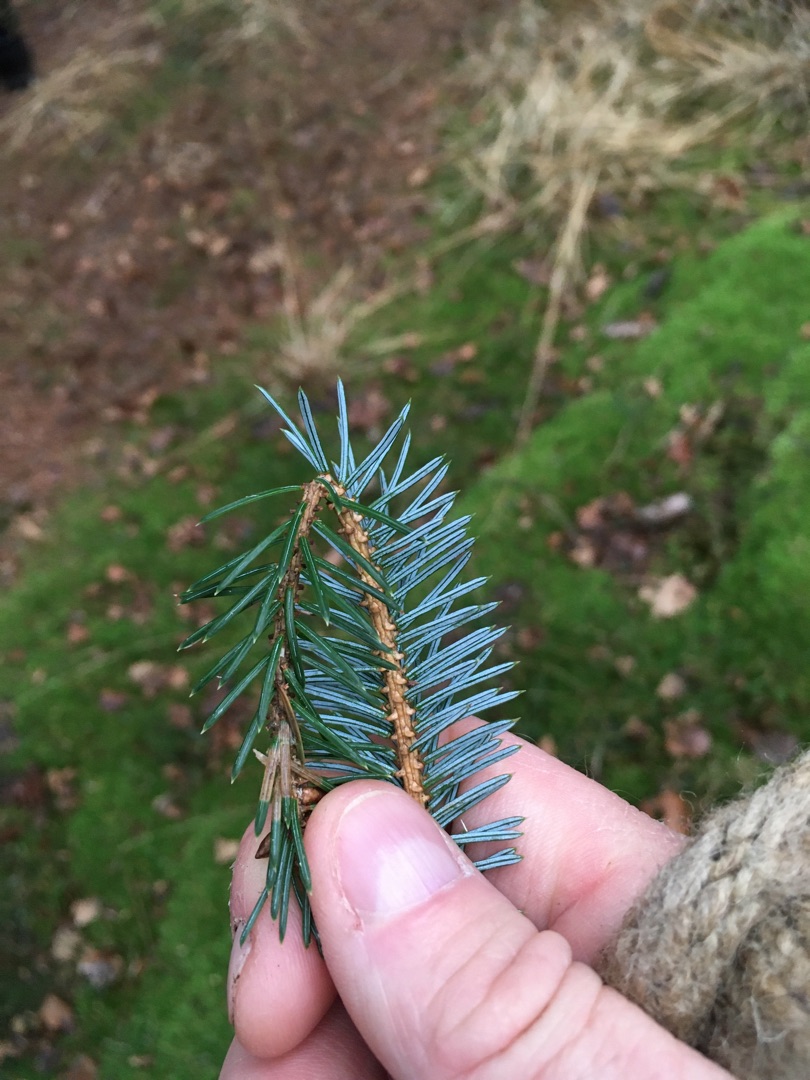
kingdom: Plantae
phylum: Tracheophyta
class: Pinopsida
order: Pinales
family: Pinaceae
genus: Picea
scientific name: Picea sitchensis
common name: Sitka-gran
